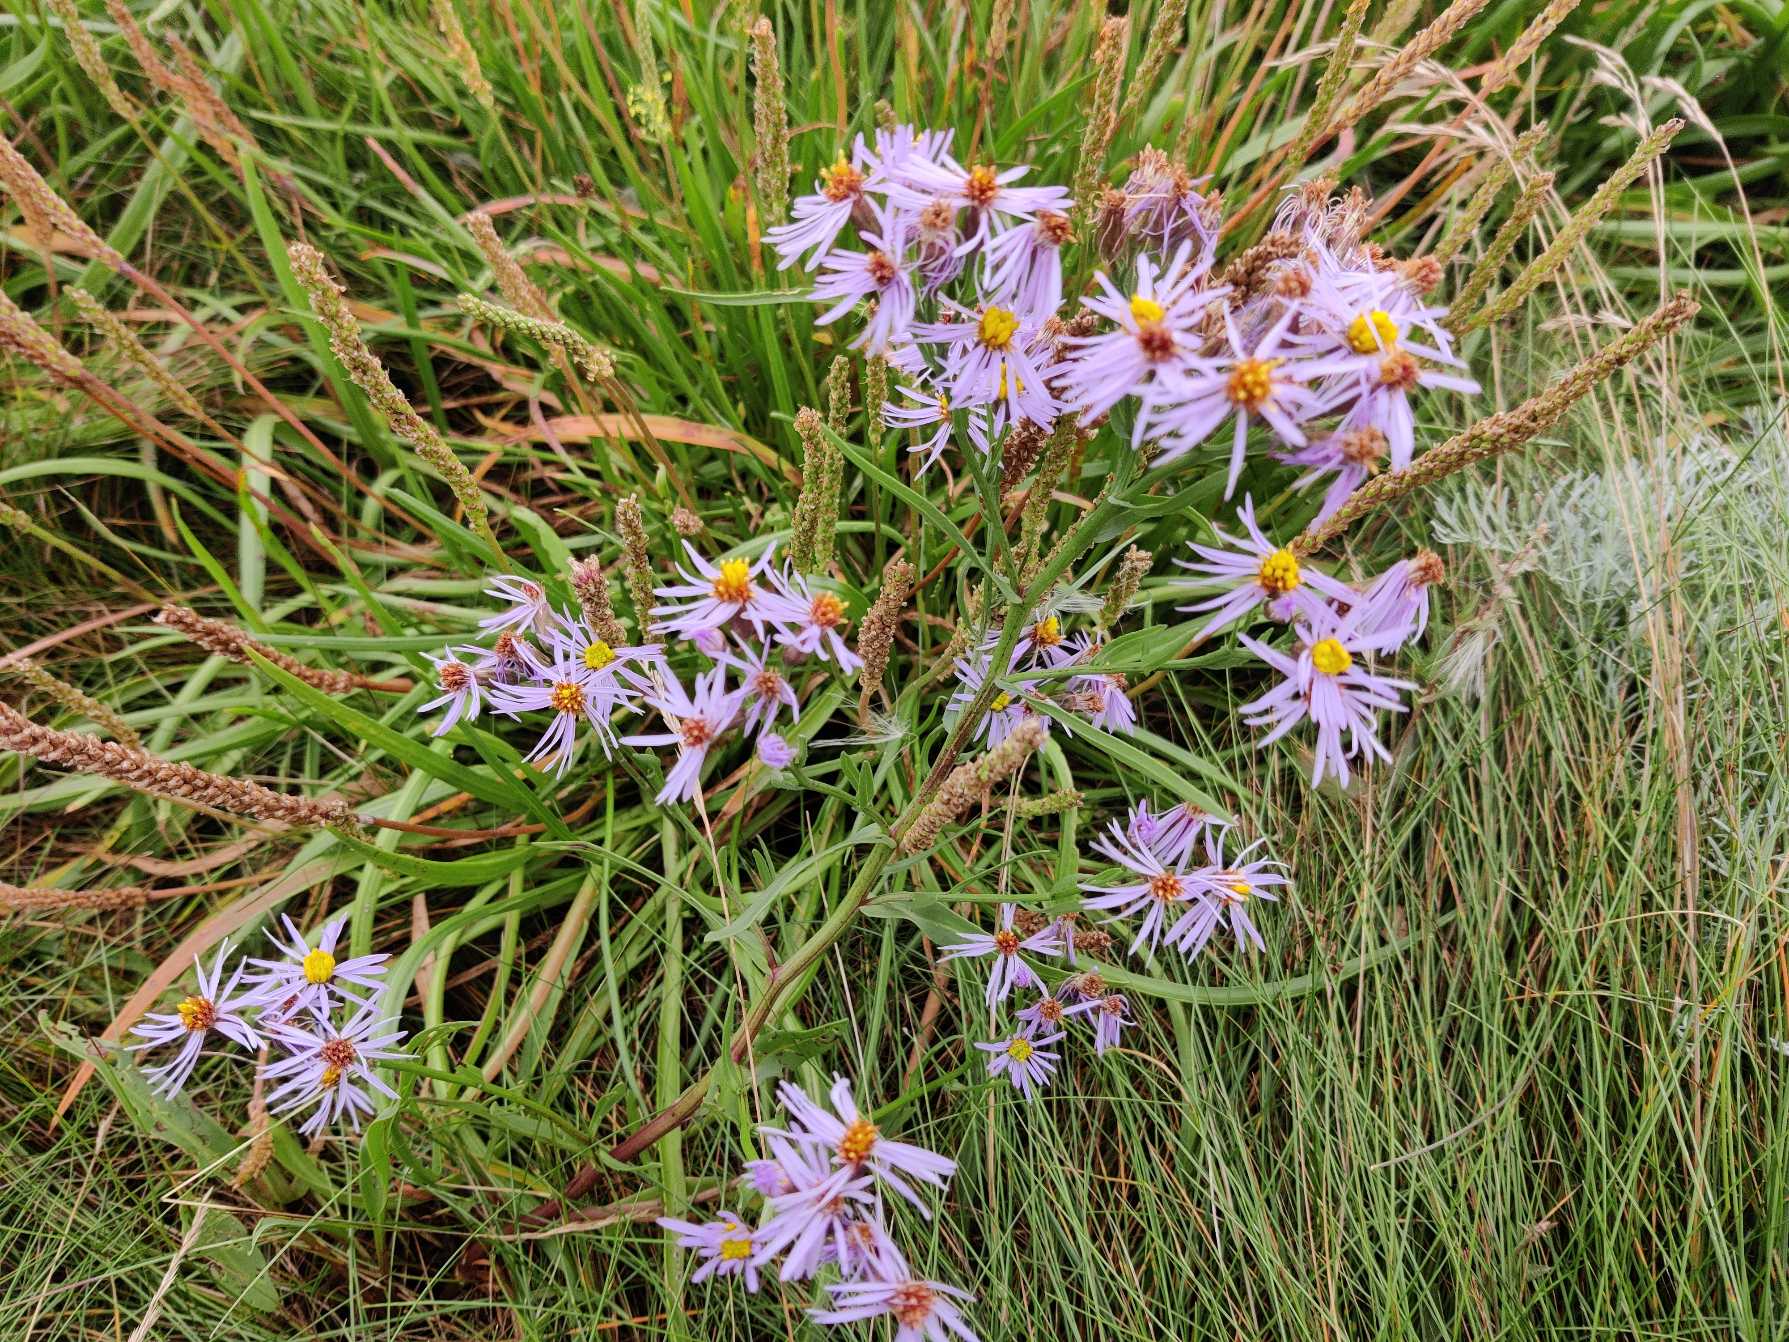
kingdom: Plantae
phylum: Tracheophyta
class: Magnoliopsida
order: Asterales
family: Asteraceae
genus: Tripolium
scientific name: Tripolium pannonicum
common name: Strandasters
